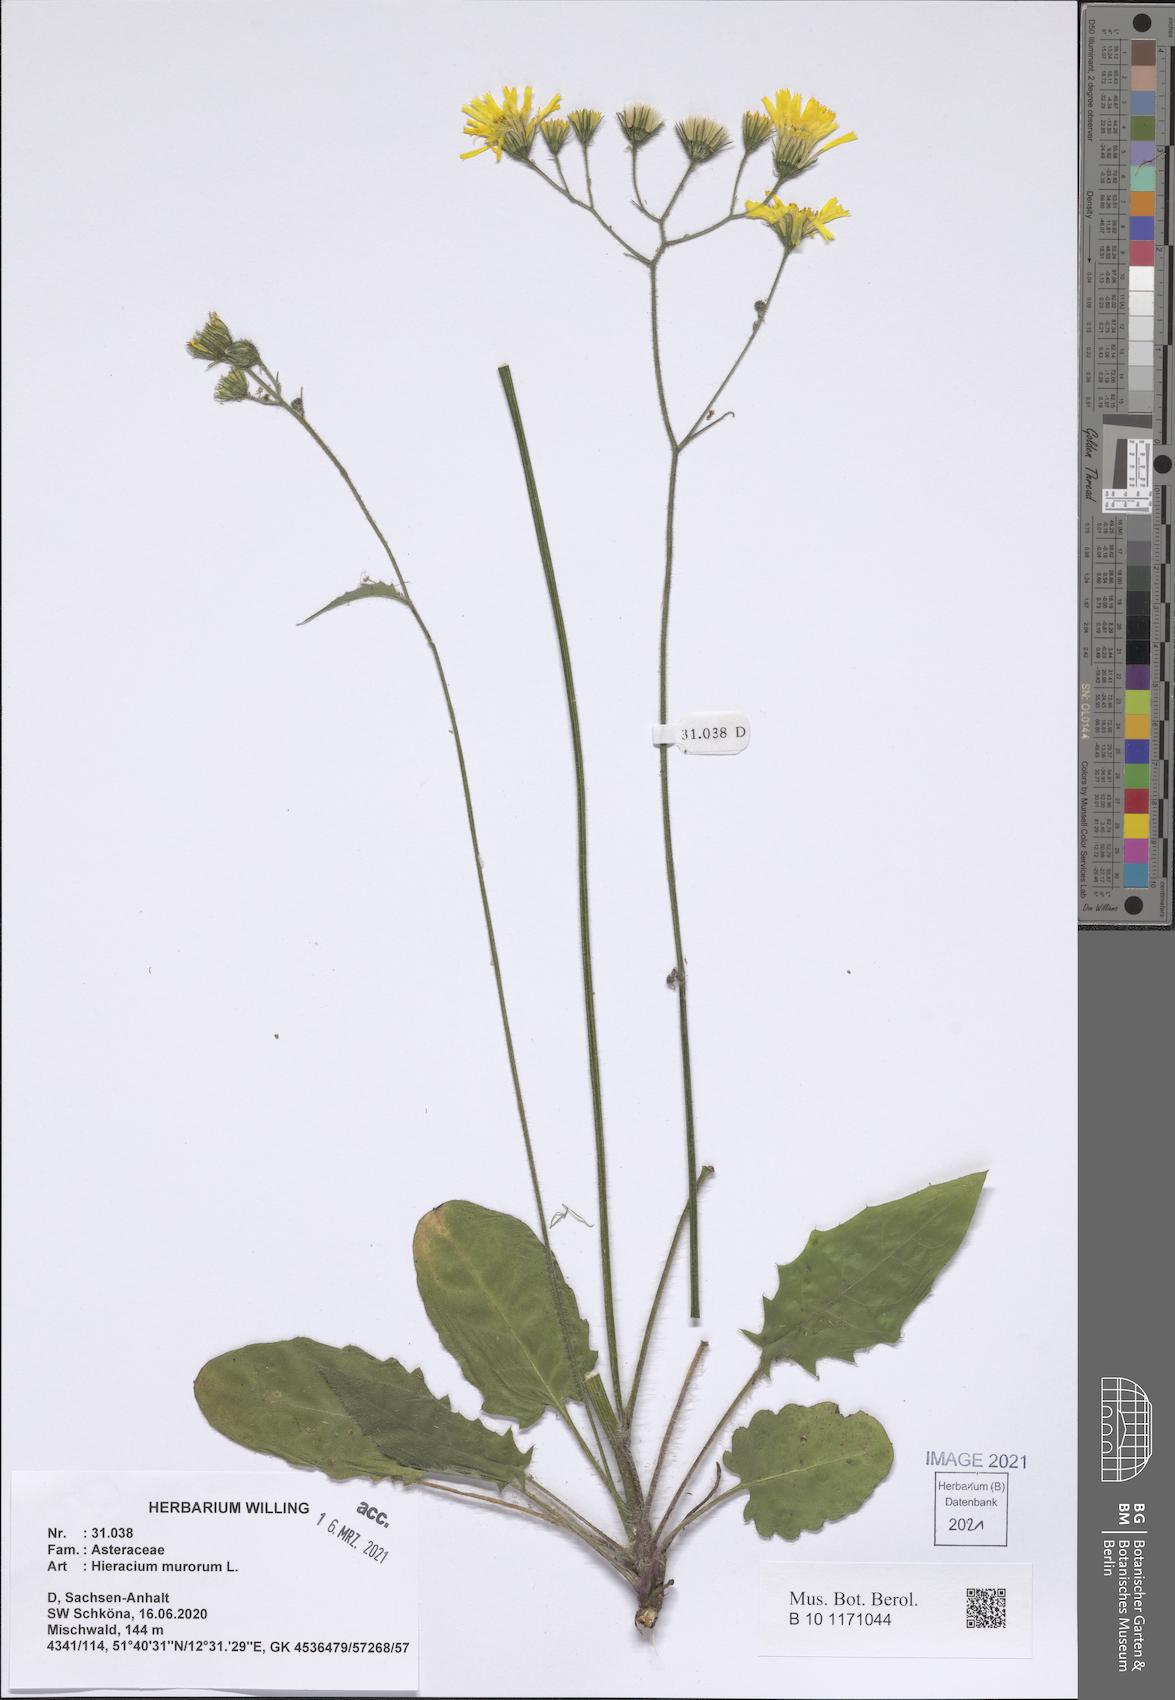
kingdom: Plantae
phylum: Tracheophyta
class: Magnoliopsida
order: Asterales
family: Asteraceae
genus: Hieracium
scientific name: Hieracium murorum
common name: Wall hawkweed
